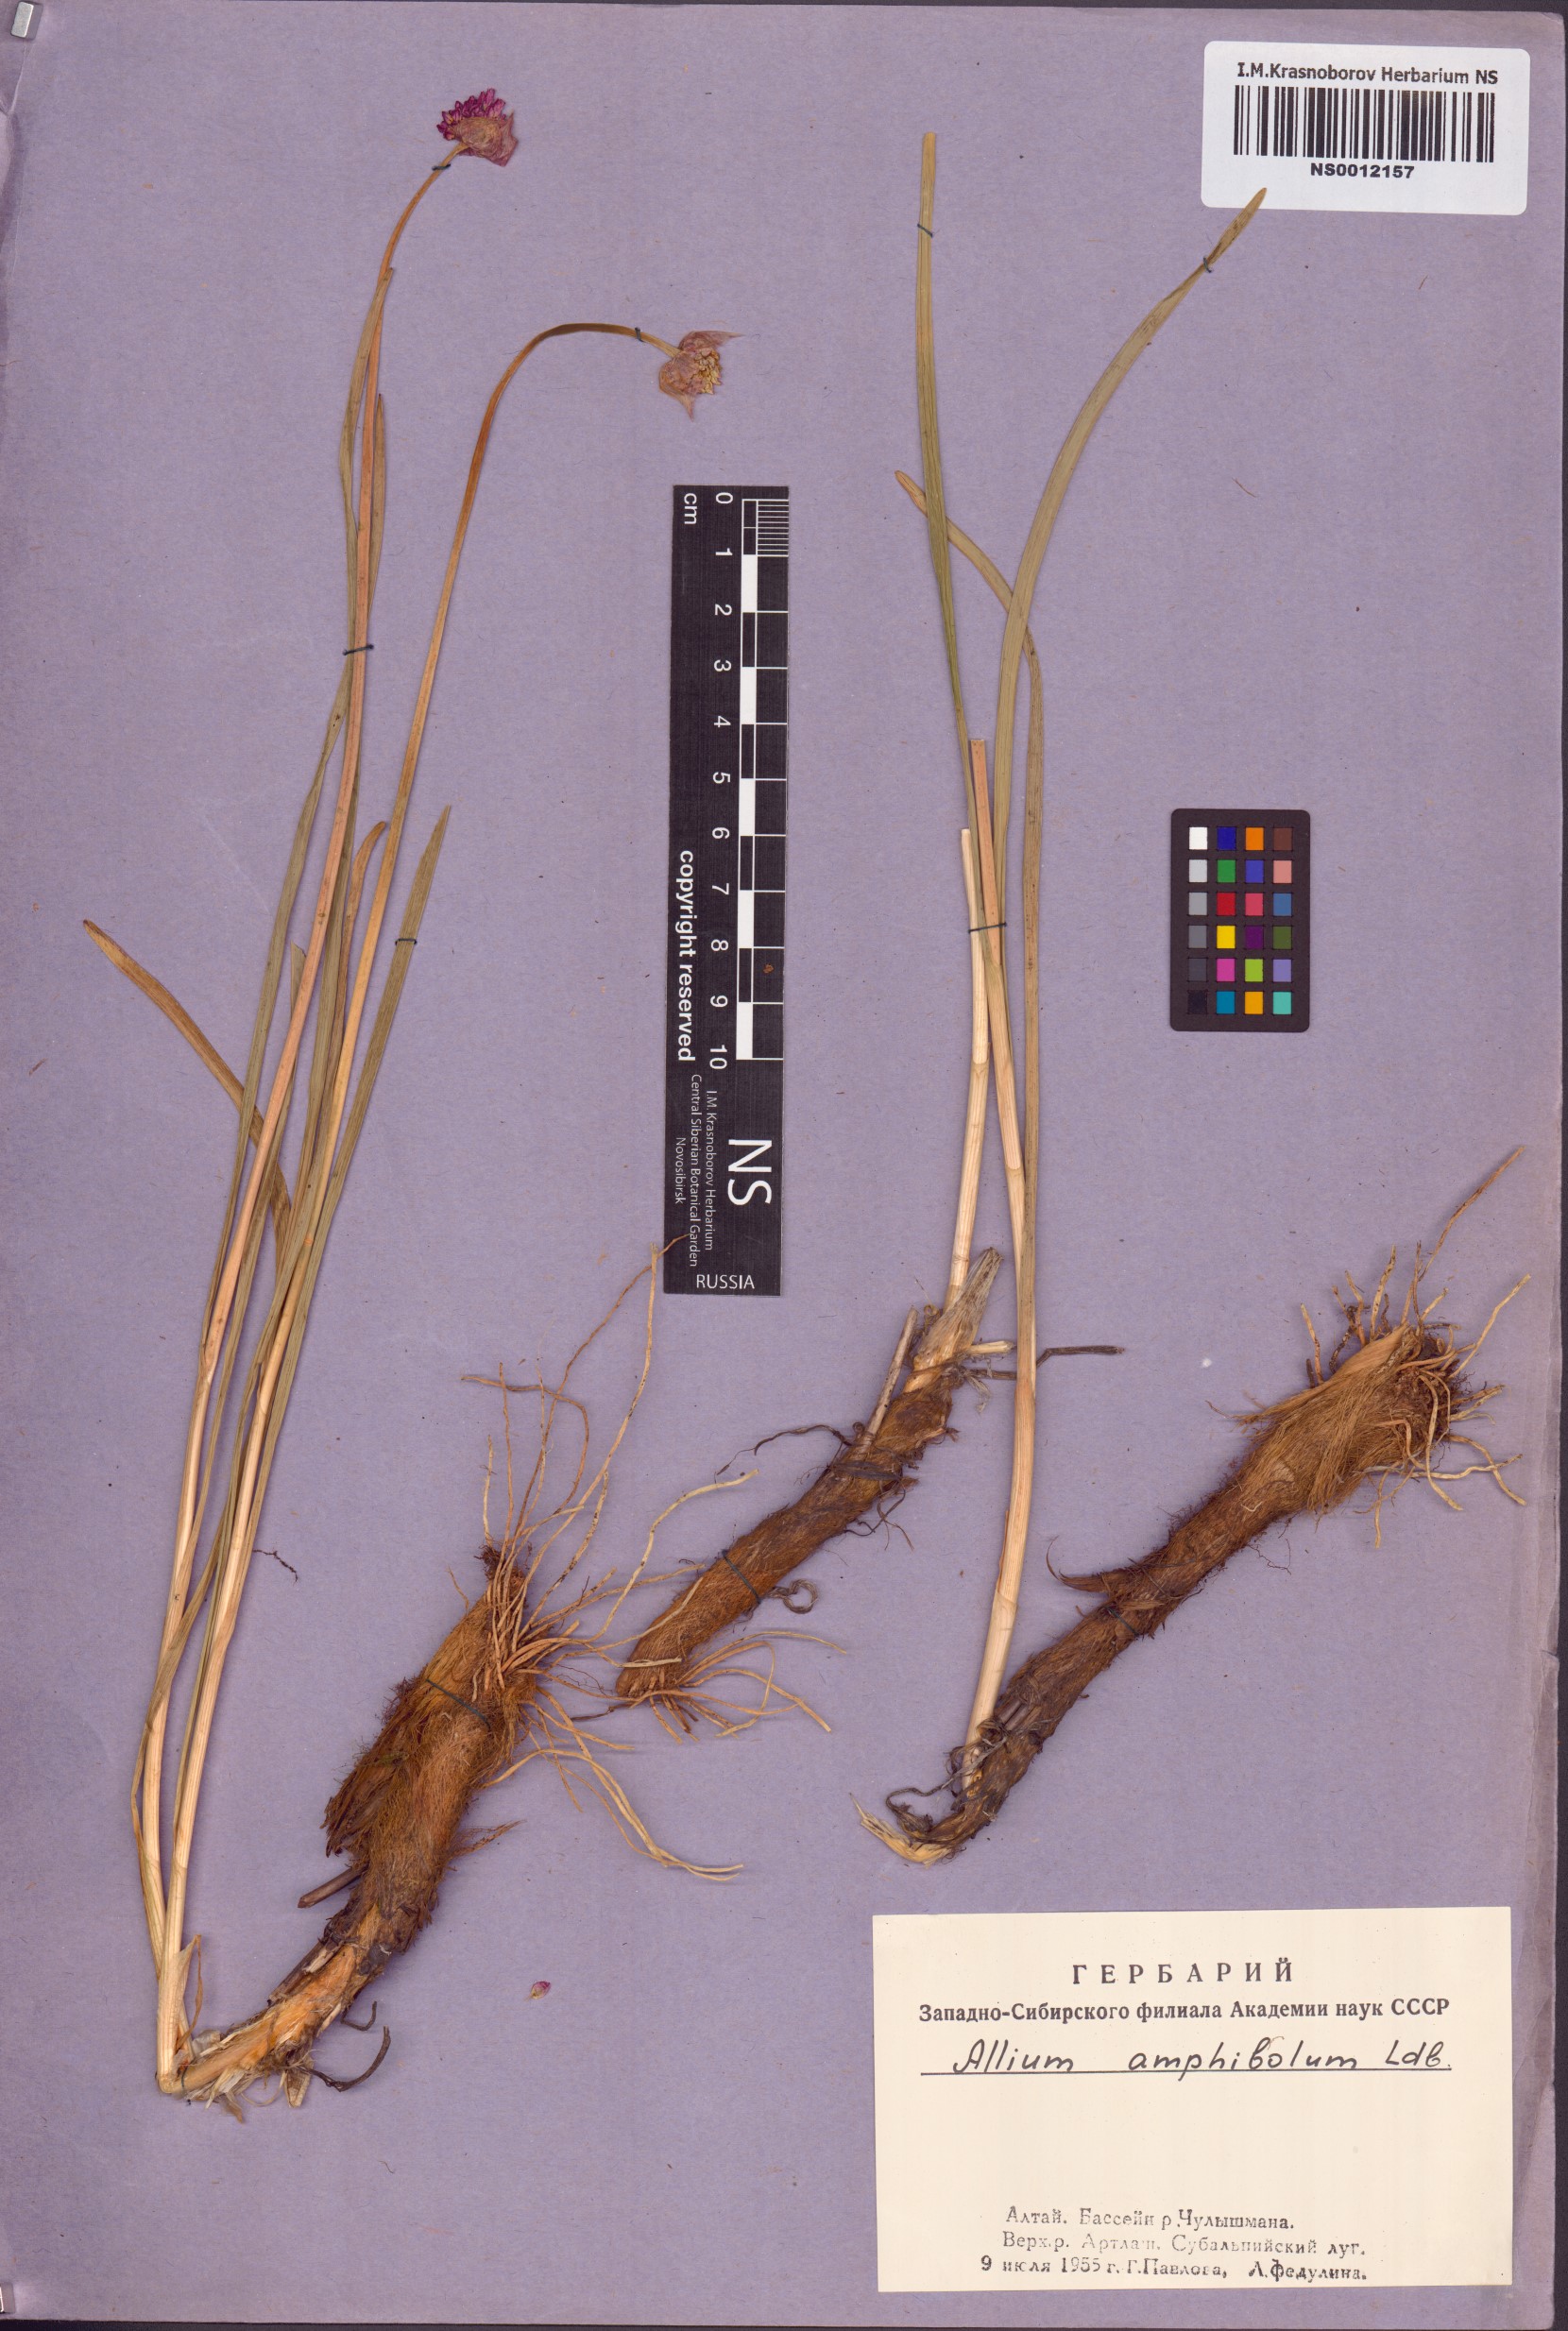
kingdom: Plantae
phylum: Tracheophyta
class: Liliopsida
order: Asparagales
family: Amaryllidaceae
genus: Allium
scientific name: Allium amphibolum
